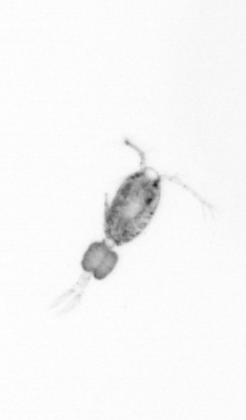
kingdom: Animalia
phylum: Arthropoda
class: Copepoda
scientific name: Copepoda
